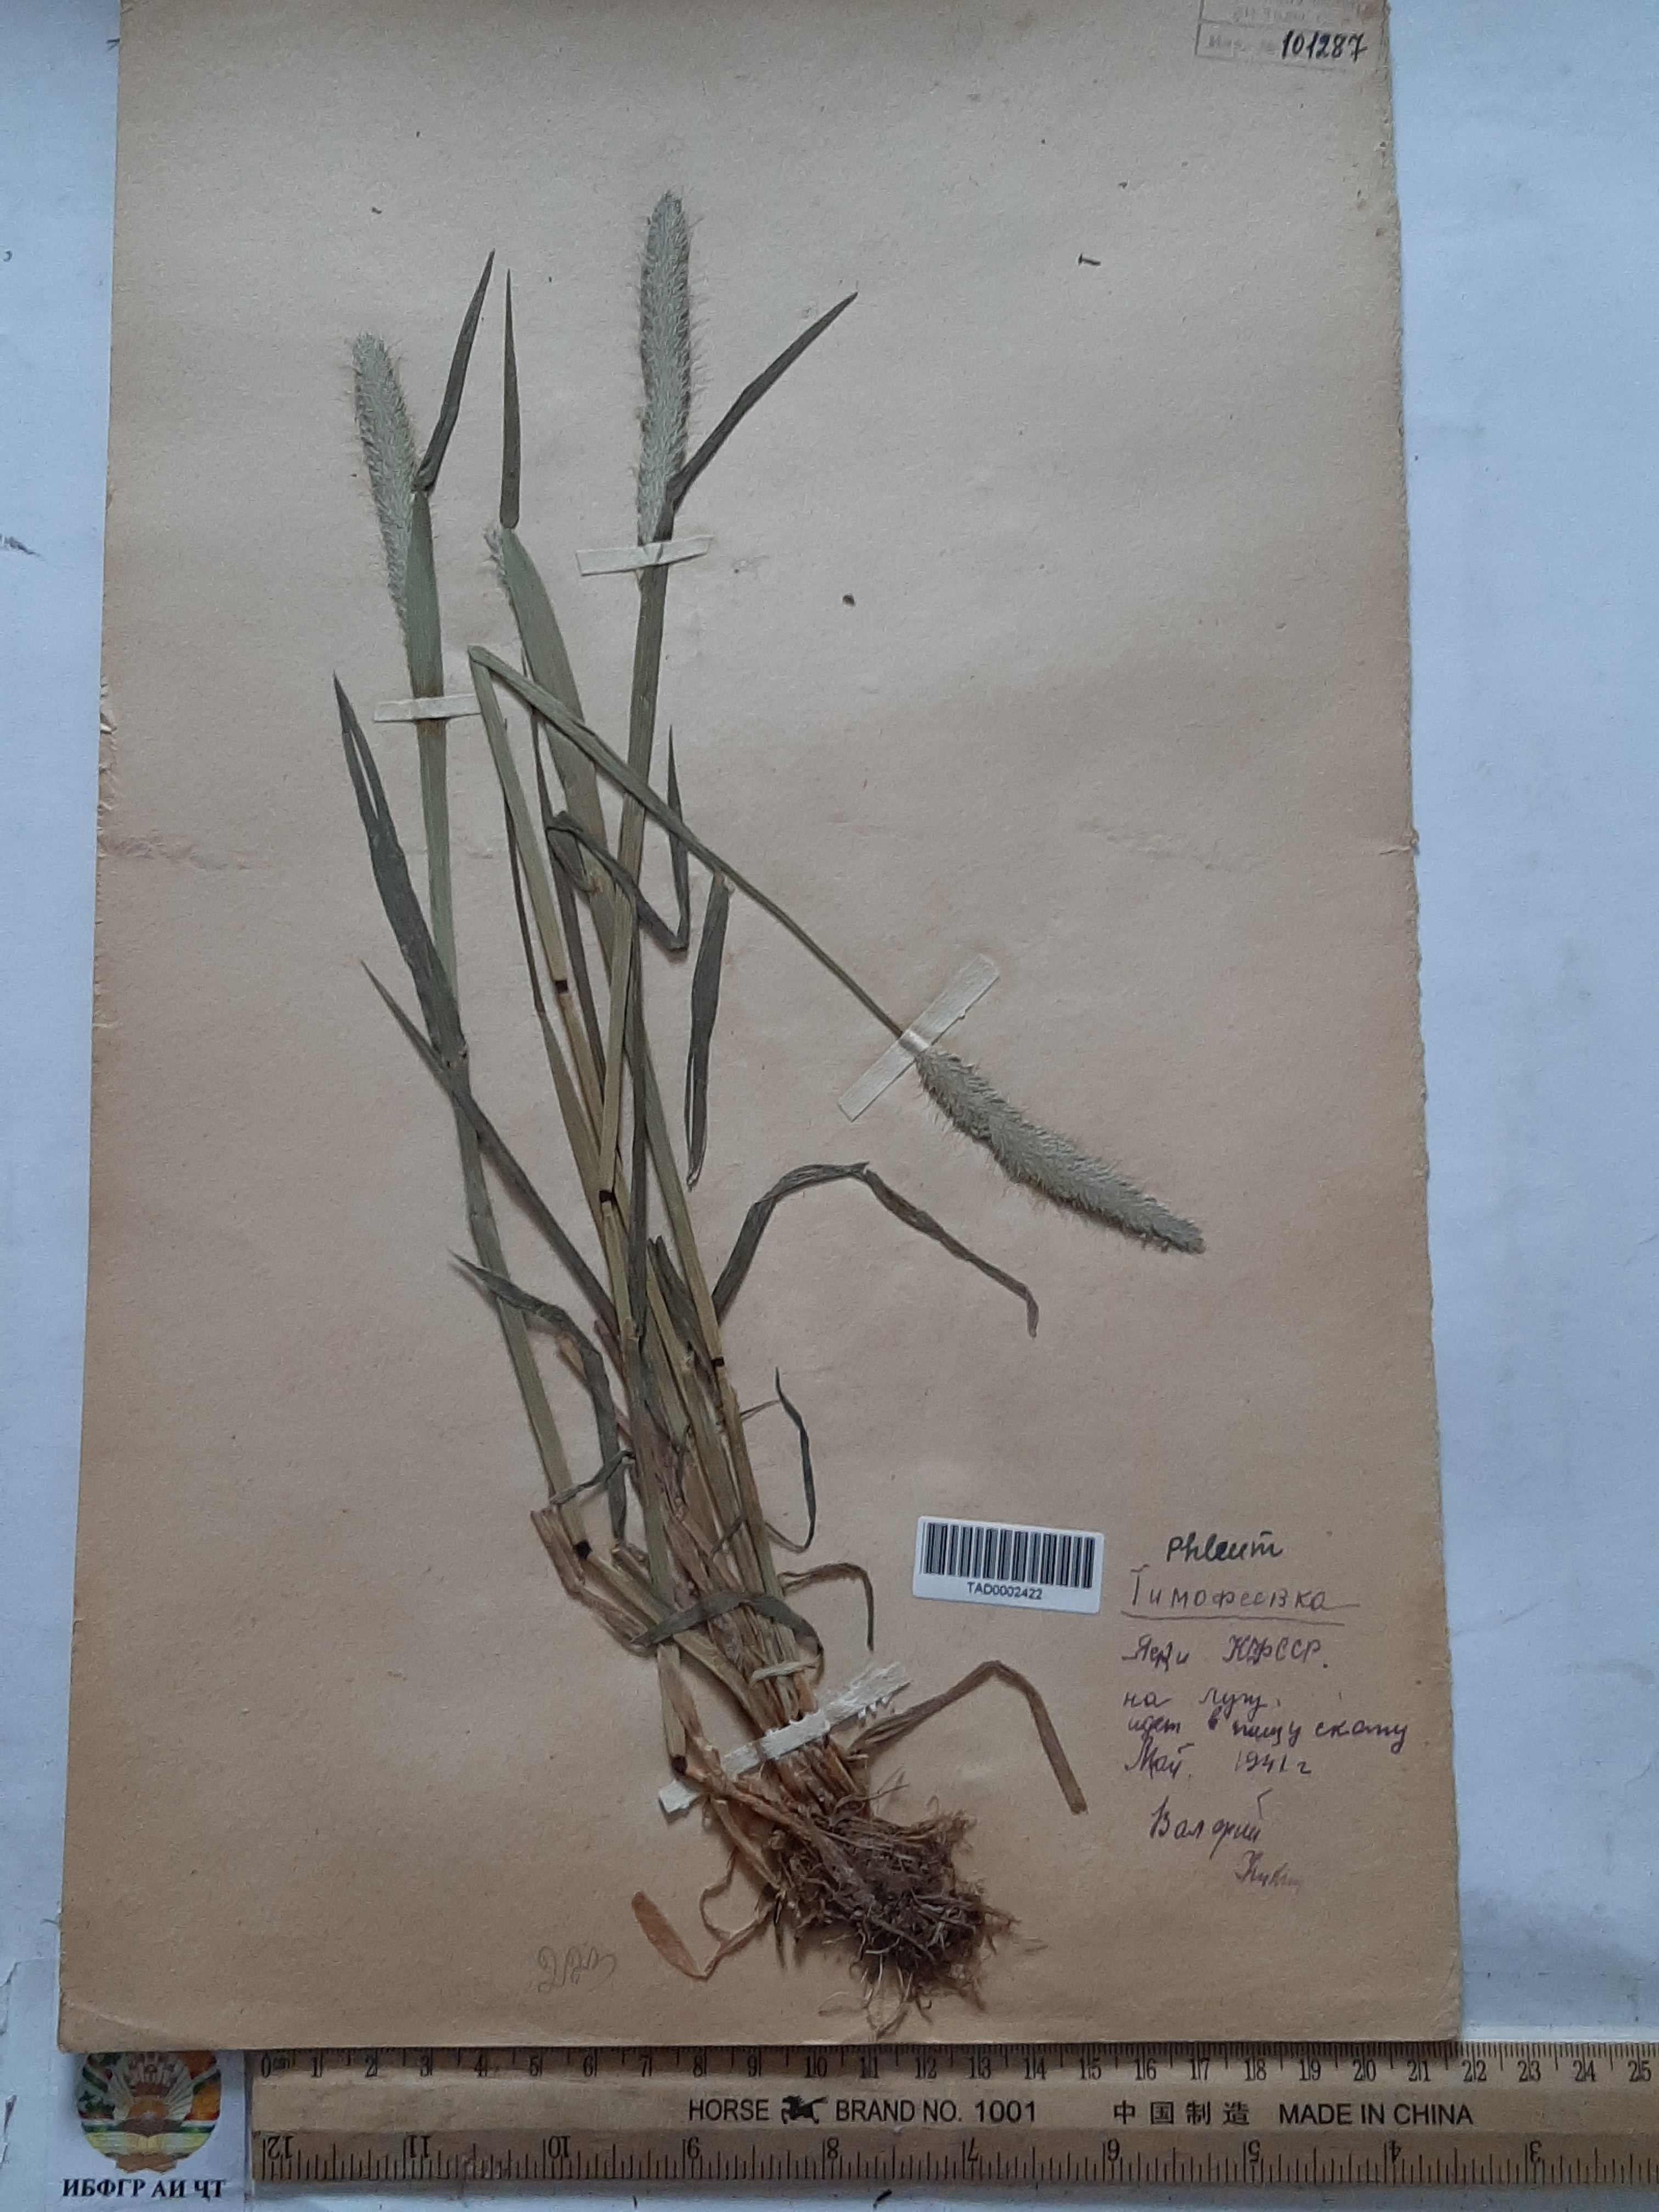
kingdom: Plantae
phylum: Tracheophyta
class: Liliopsida
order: Poales
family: Poaceae
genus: Alopecurus
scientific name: Alopecurus aequalis
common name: Orange foxtail
